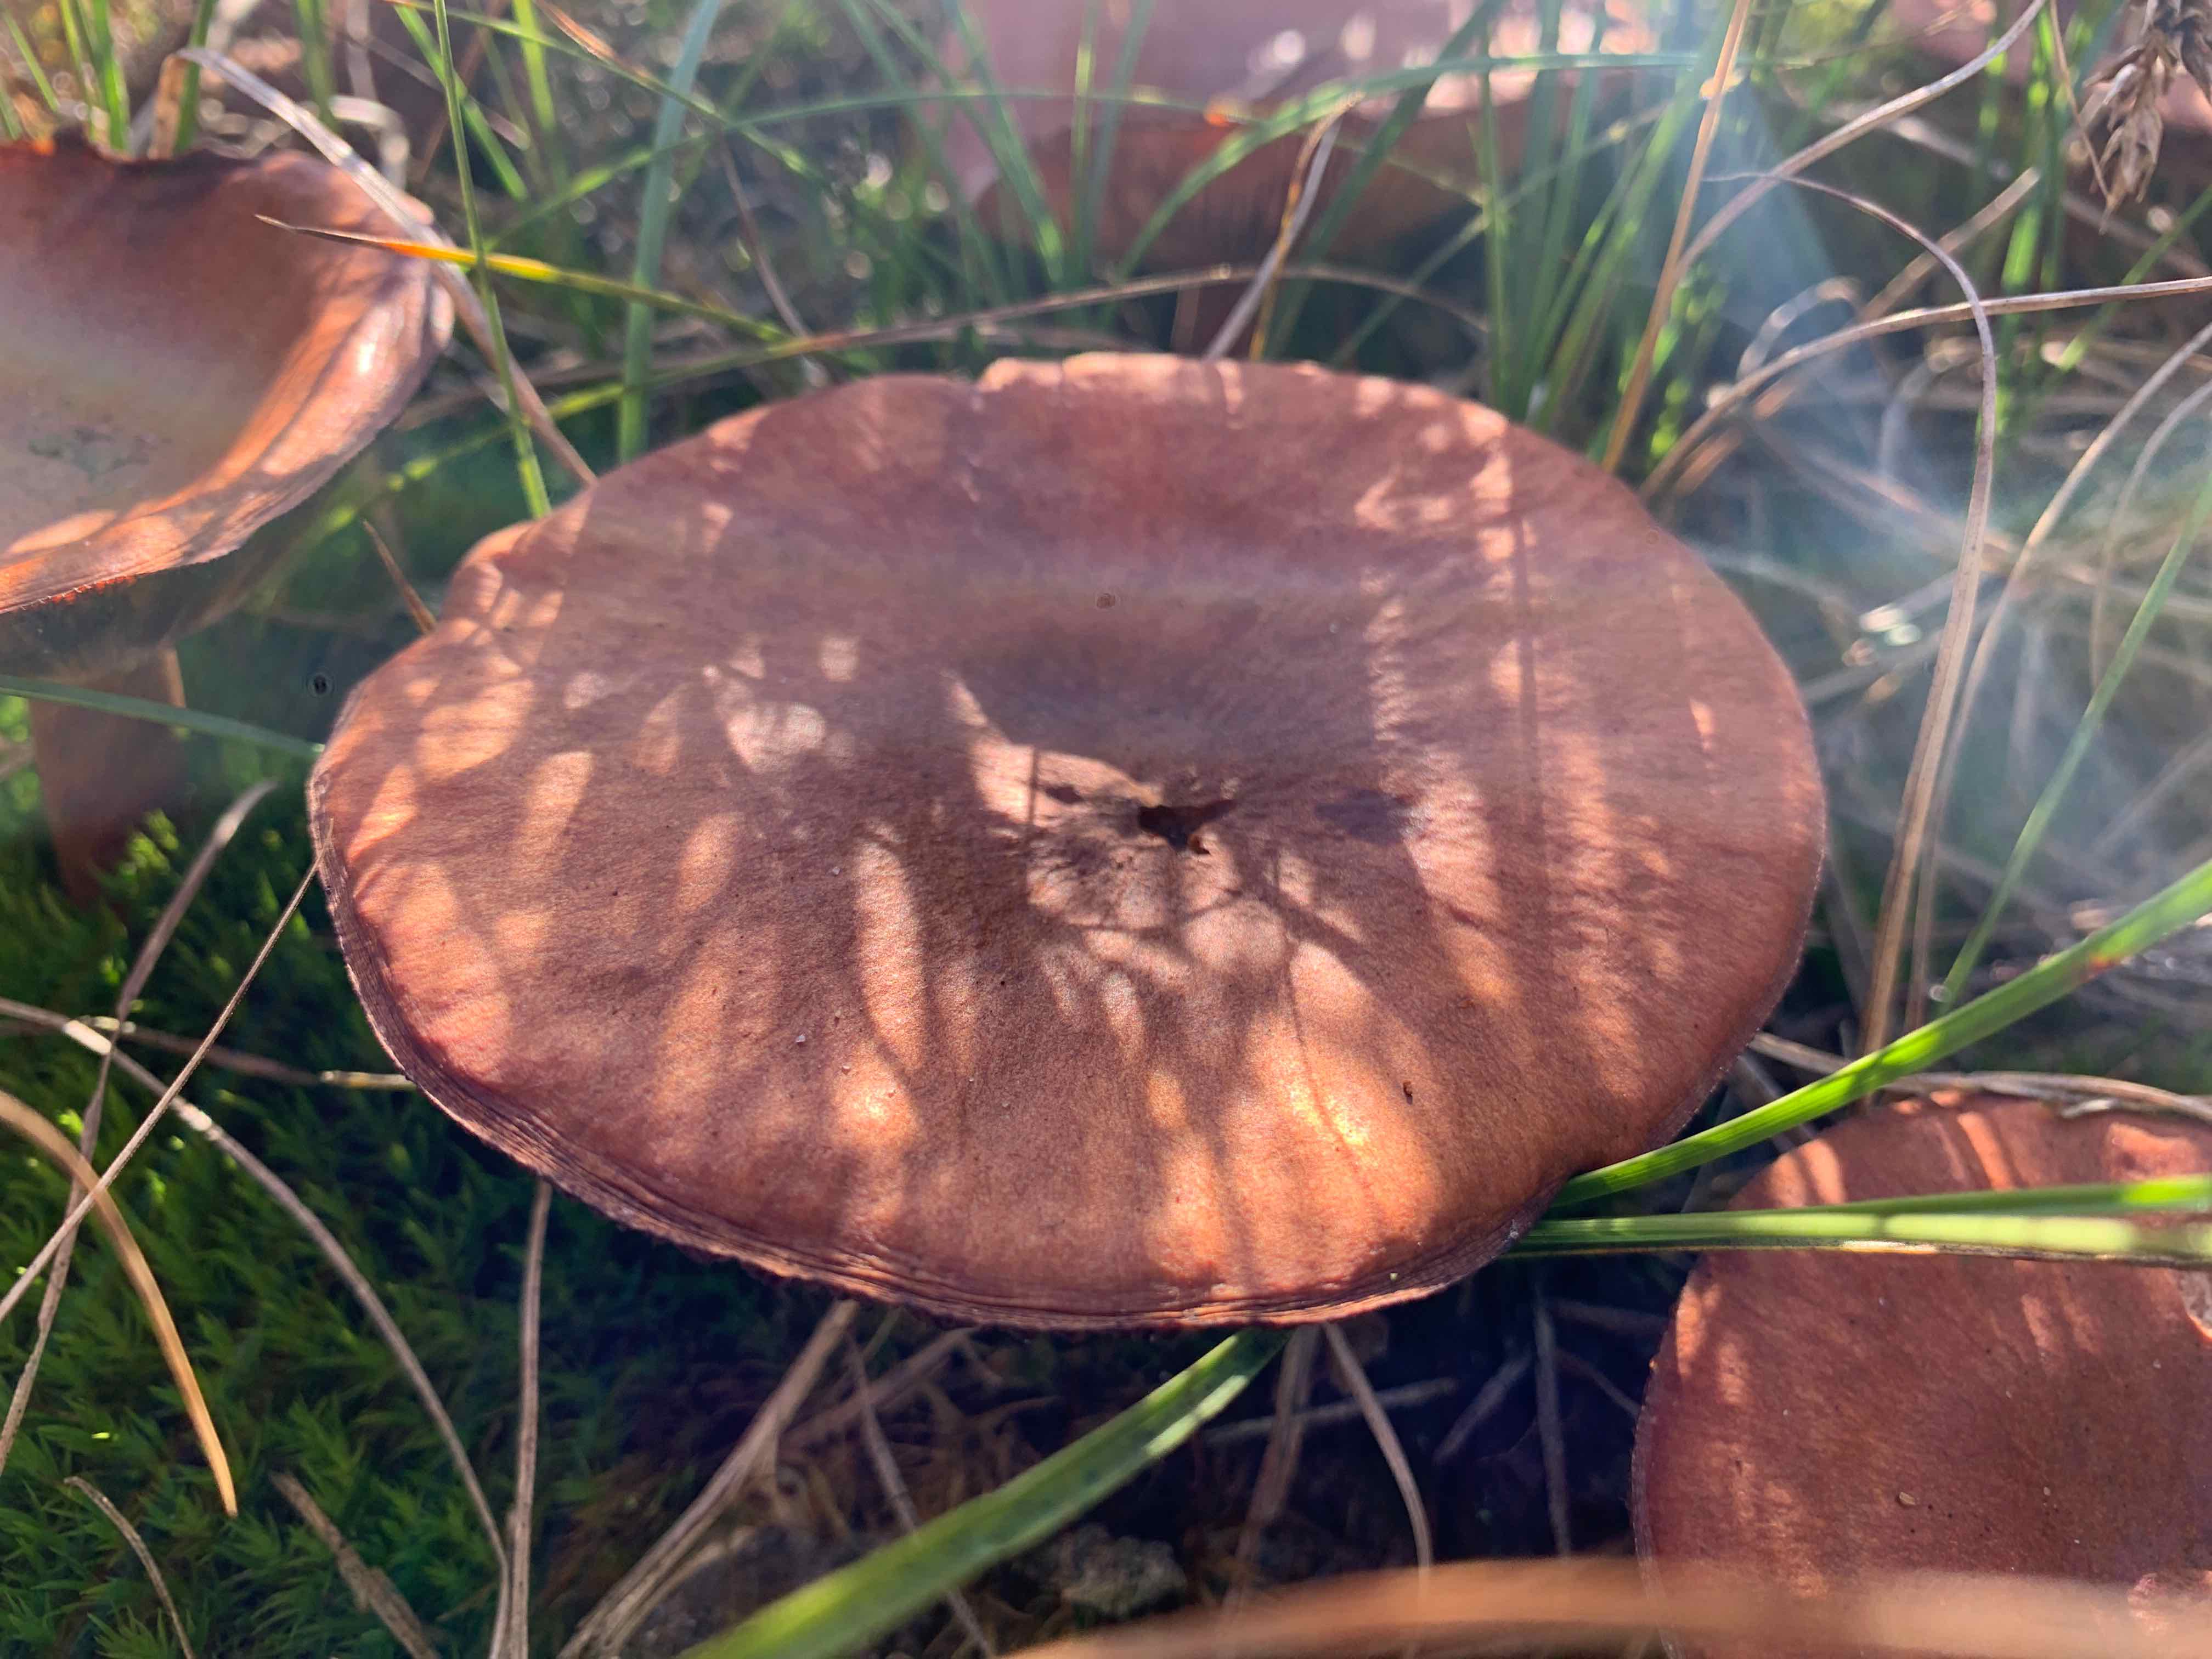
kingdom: Fungi
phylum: Basidiomycota
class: Agaricomycetes
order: Russulales
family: Russulaceae
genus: Lactarius
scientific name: Lactarius camphoratus
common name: kamfer-mælkehat
